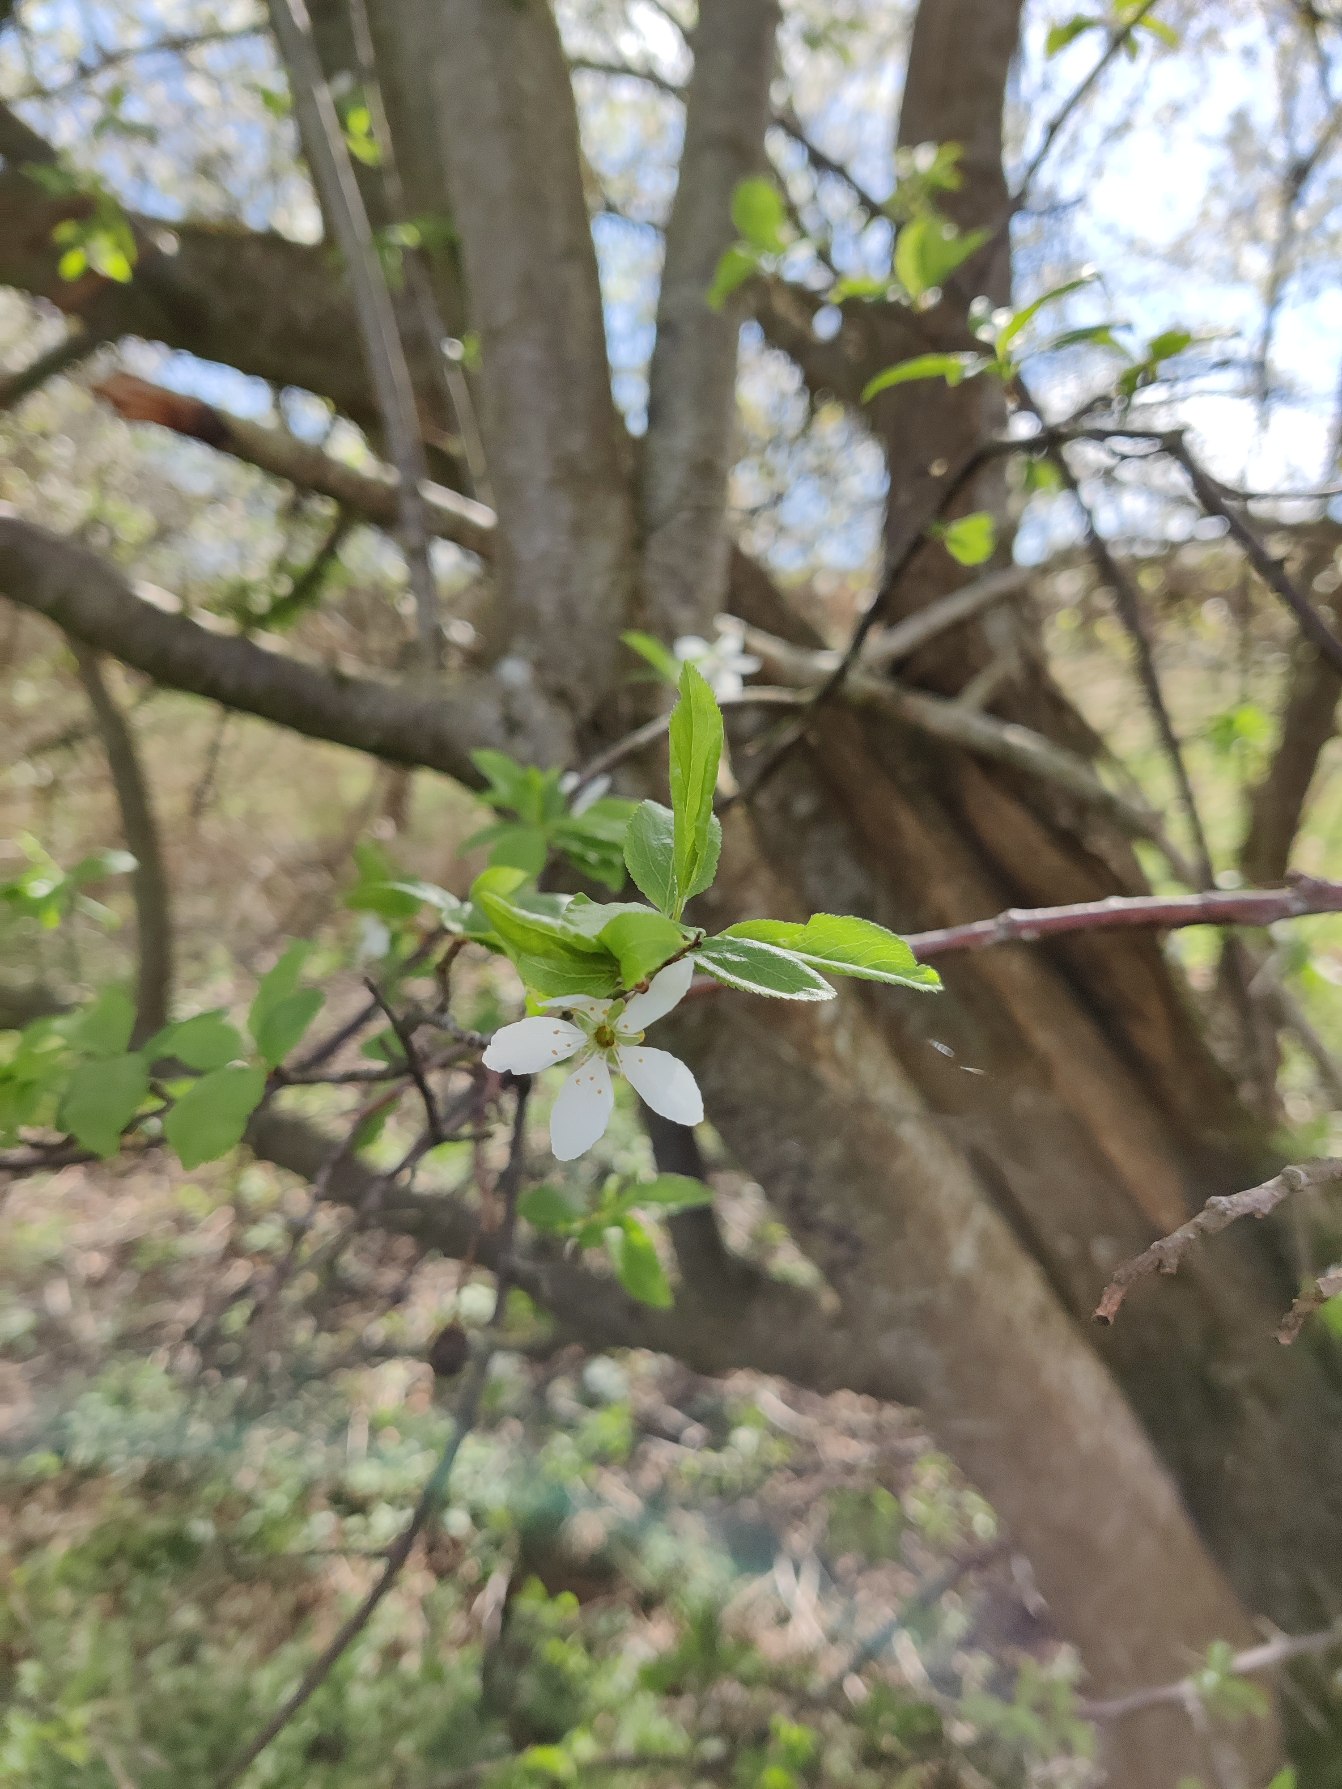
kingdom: Plantae
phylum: Tracheophyta
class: Magnoliopsida
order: Rosales
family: Rosaceae
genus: Prunus
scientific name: Prunus cerasifera
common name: Mirabel
